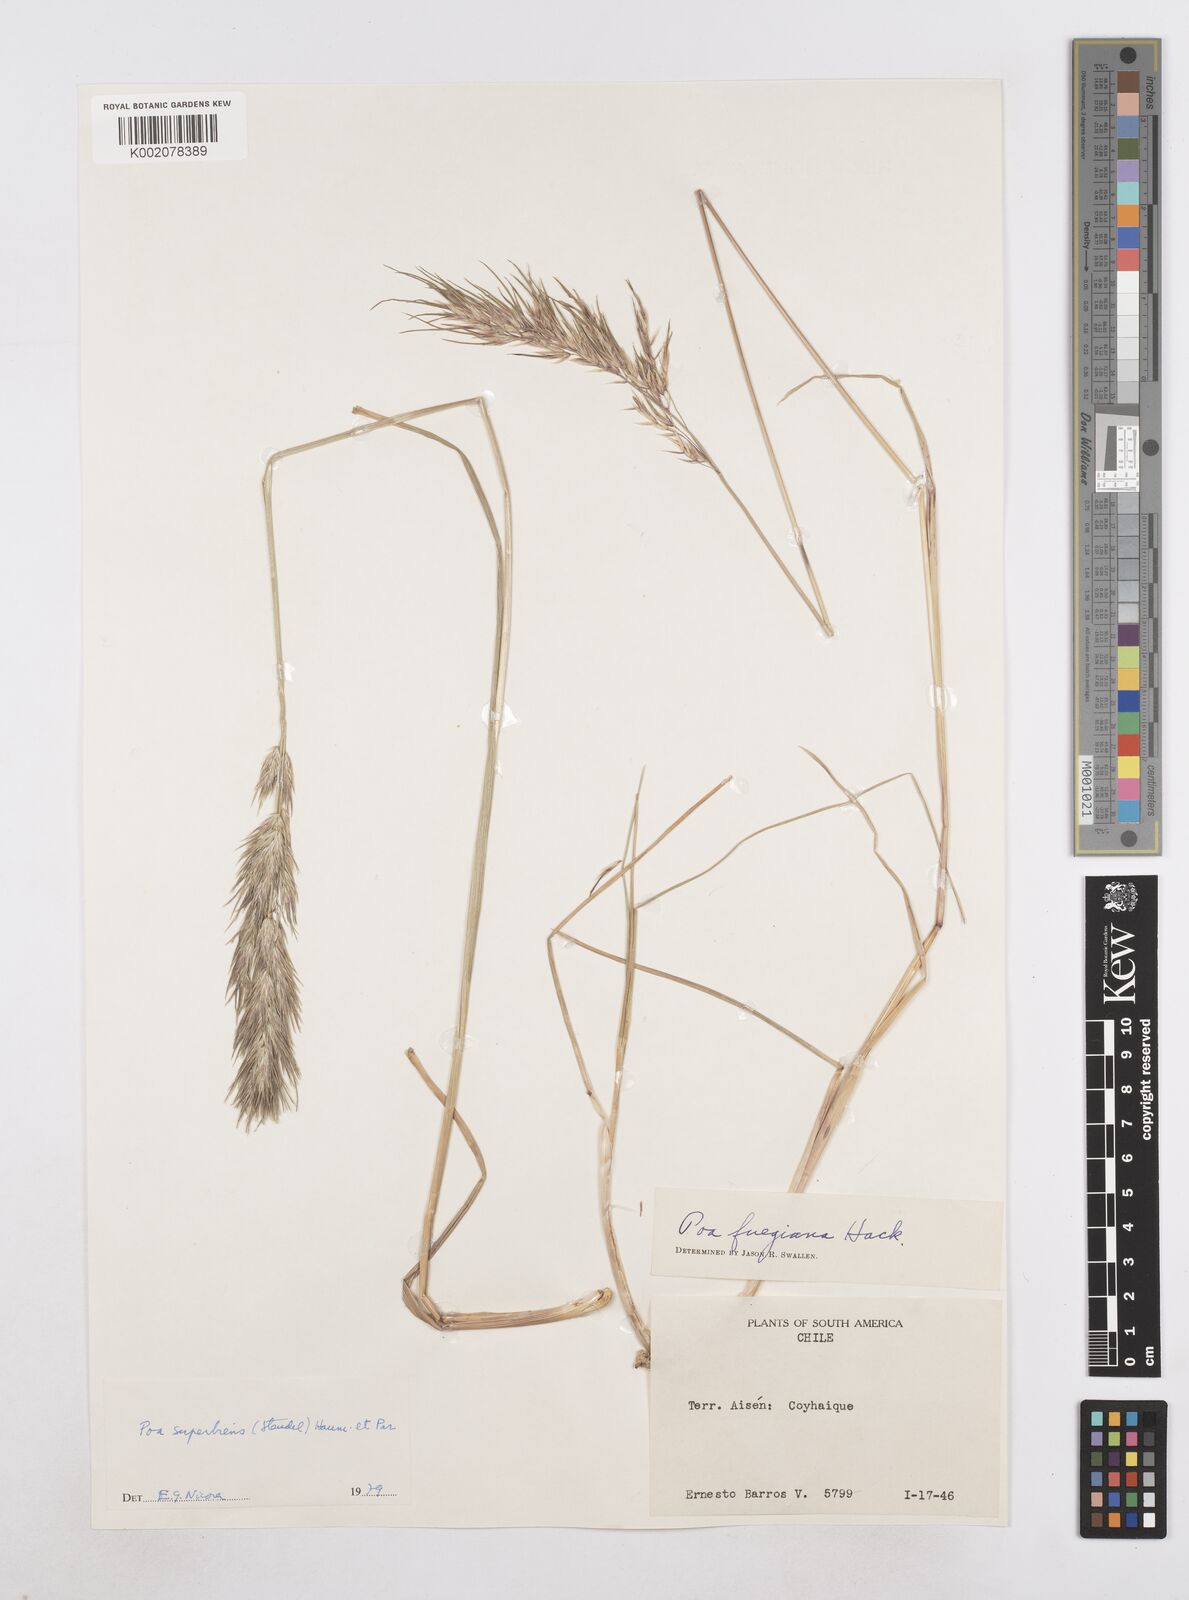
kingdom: Plantae
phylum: Tracheophyta
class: Liliopsida
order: Poales
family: Poaceae
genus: Poa
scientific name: Poa alopecurus
